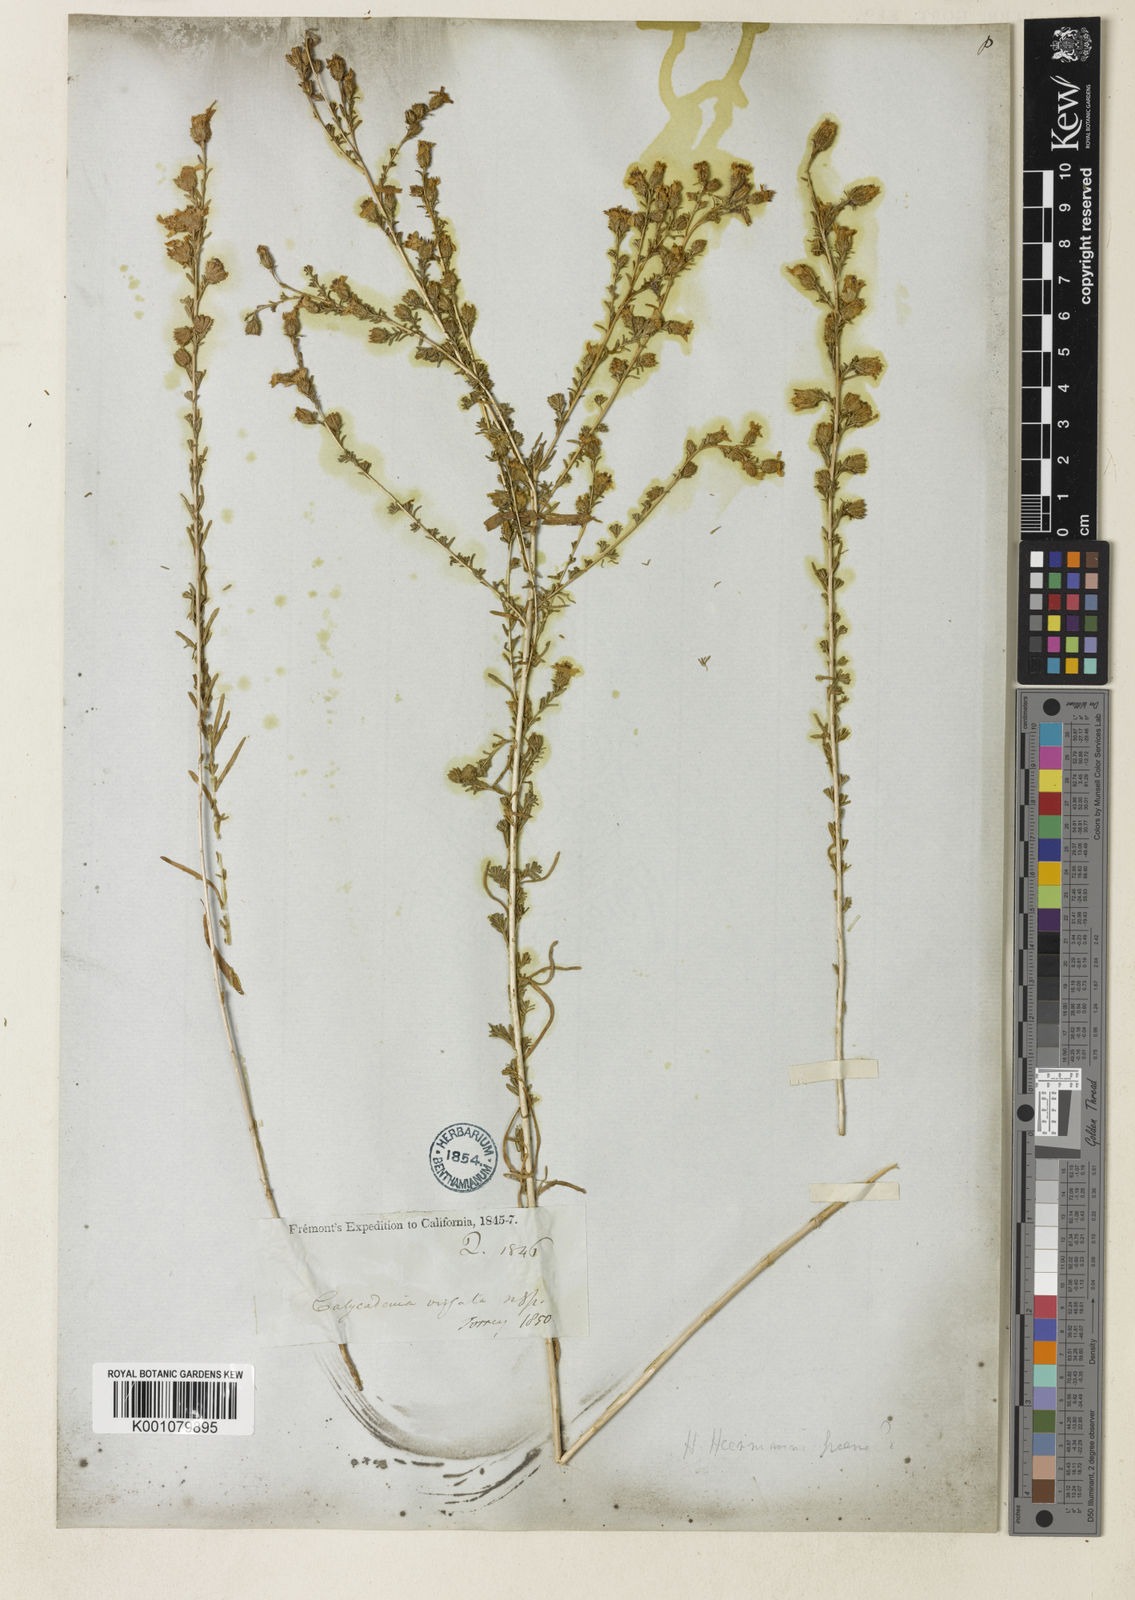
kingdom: Plantae
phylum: Tracheophyta
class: Magnoliopsida
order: Asterales
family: Asteraceae
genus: Holocarpha
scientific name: Holocarpha virgata
